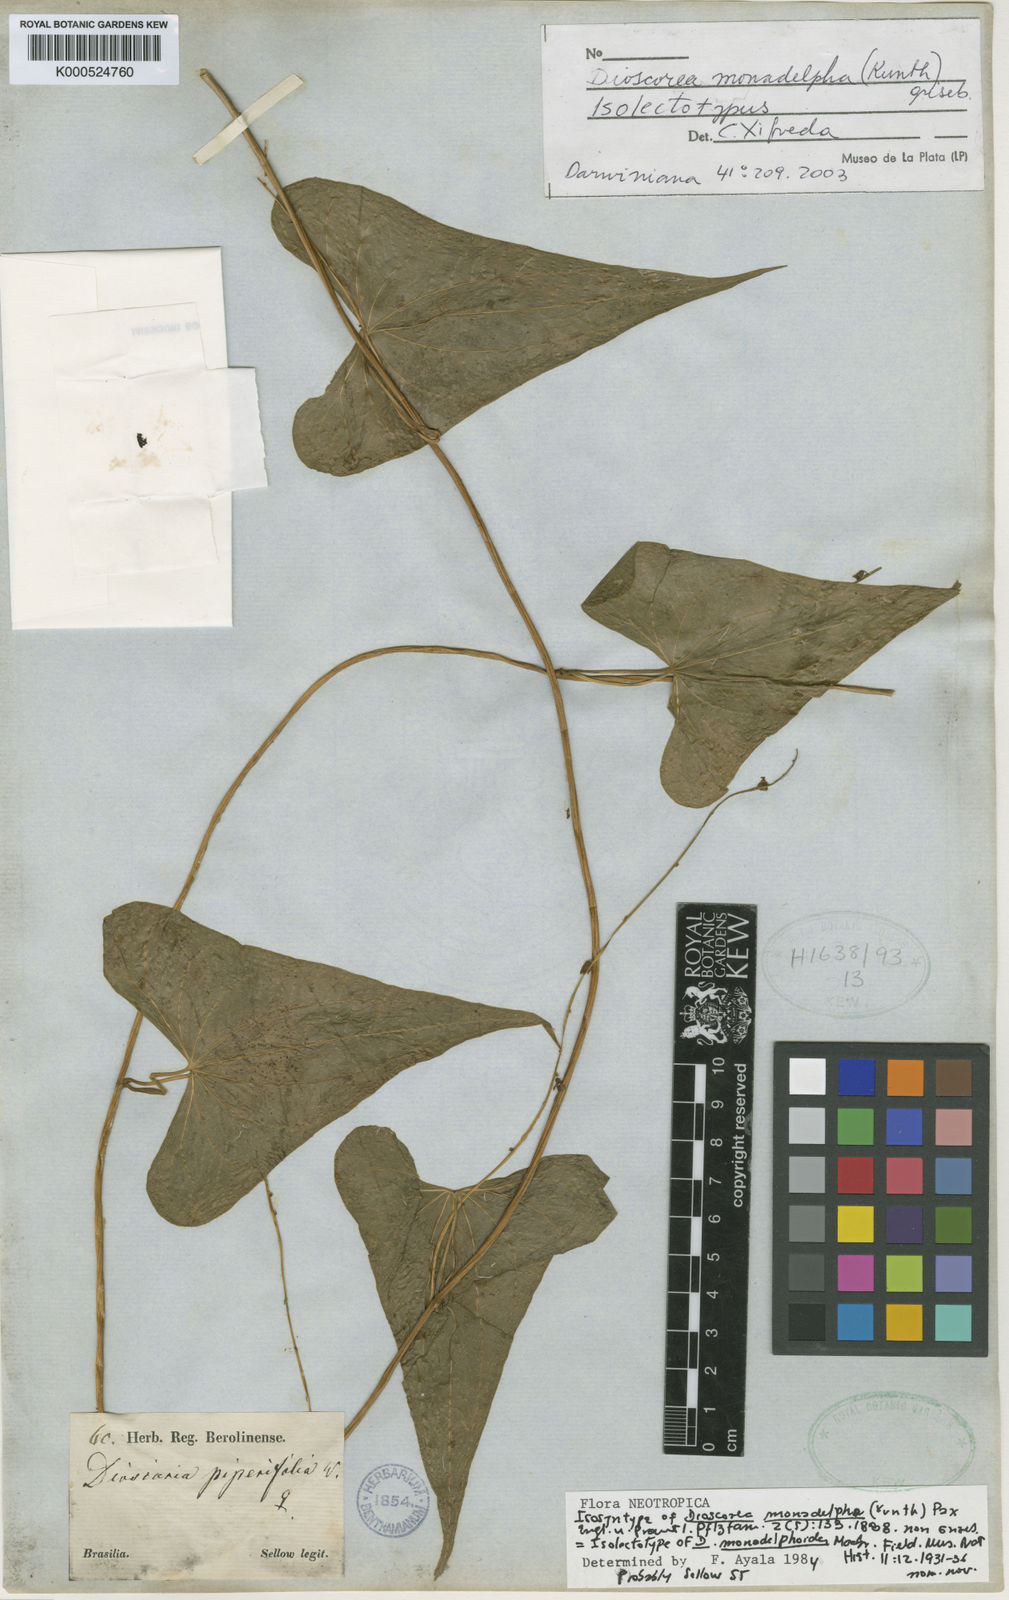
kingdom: Plantae
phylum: Tracheophyta
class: Liliopsida
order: Dioscoreales
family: Dioscoreaceae
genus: Dioscorea
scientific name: Dioscorea monadelpha
